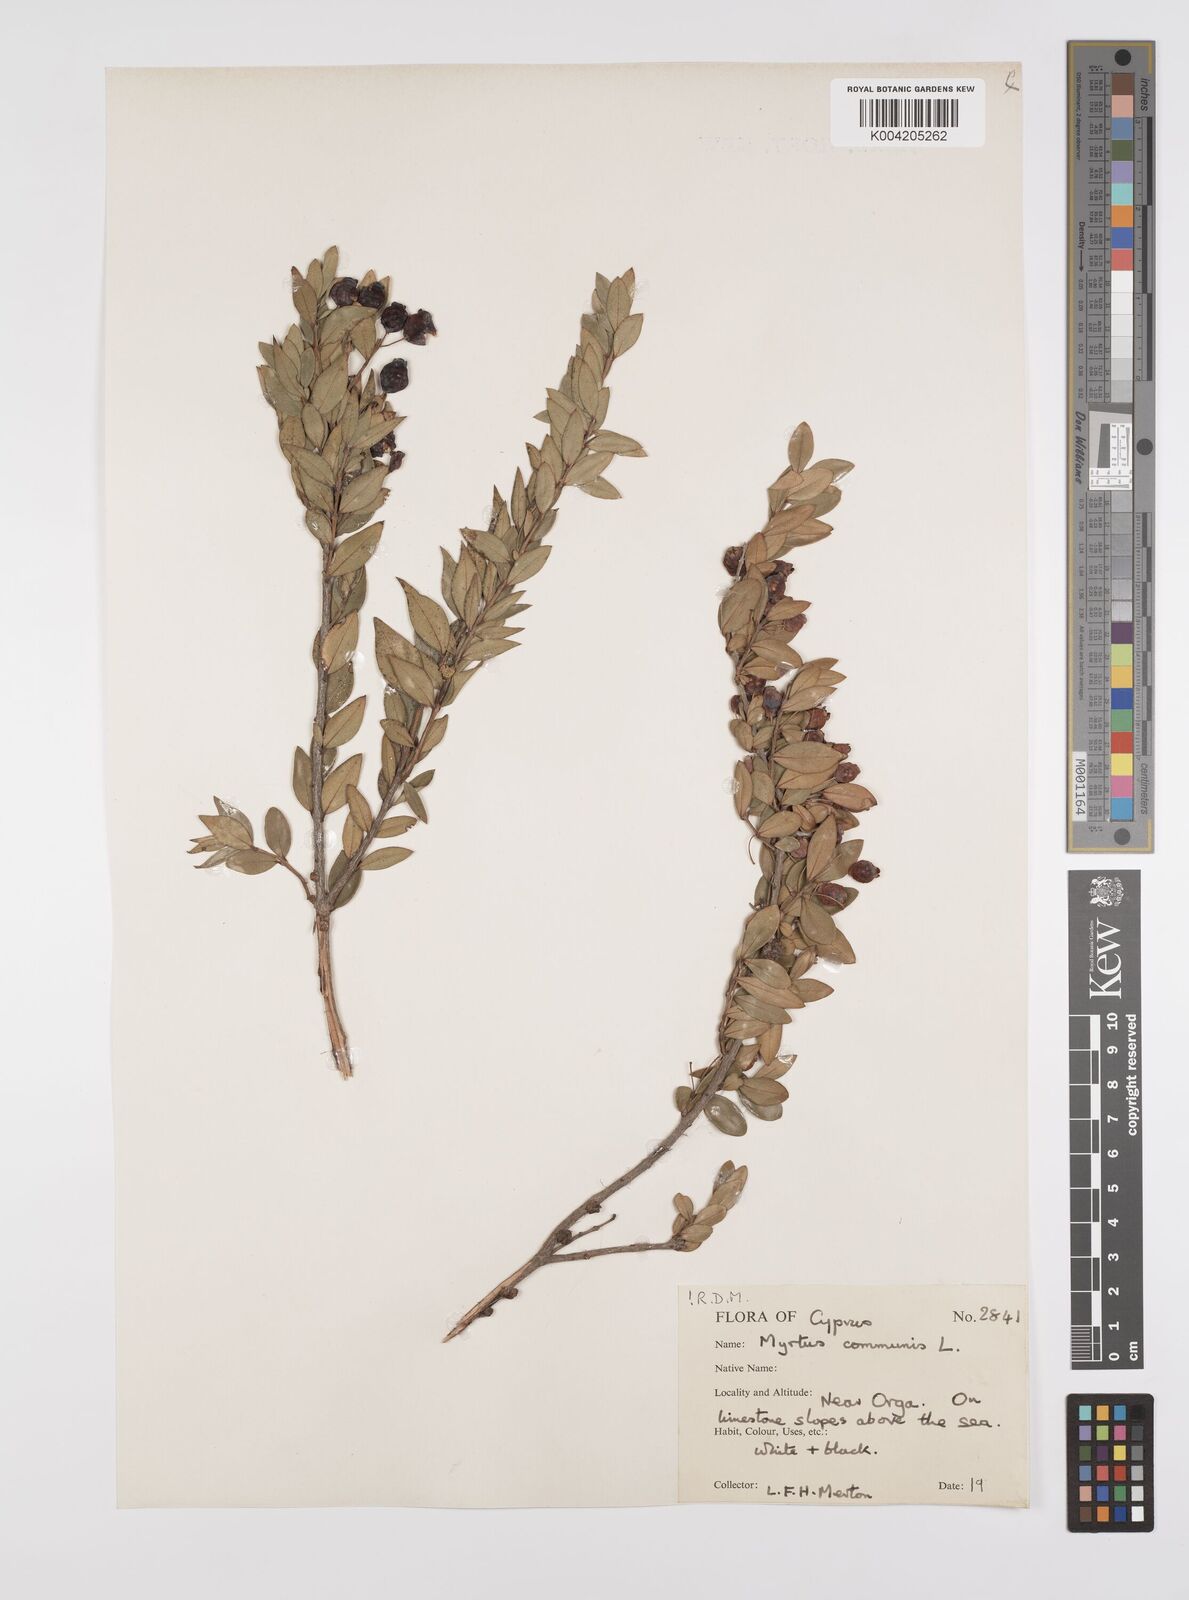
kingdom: Plantae
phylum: Tracheophyta
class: Magnoliopsida
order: Myrtales
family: Myrtaceae
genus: Myrtus
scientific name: Myrtus communis
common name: Myrtle
